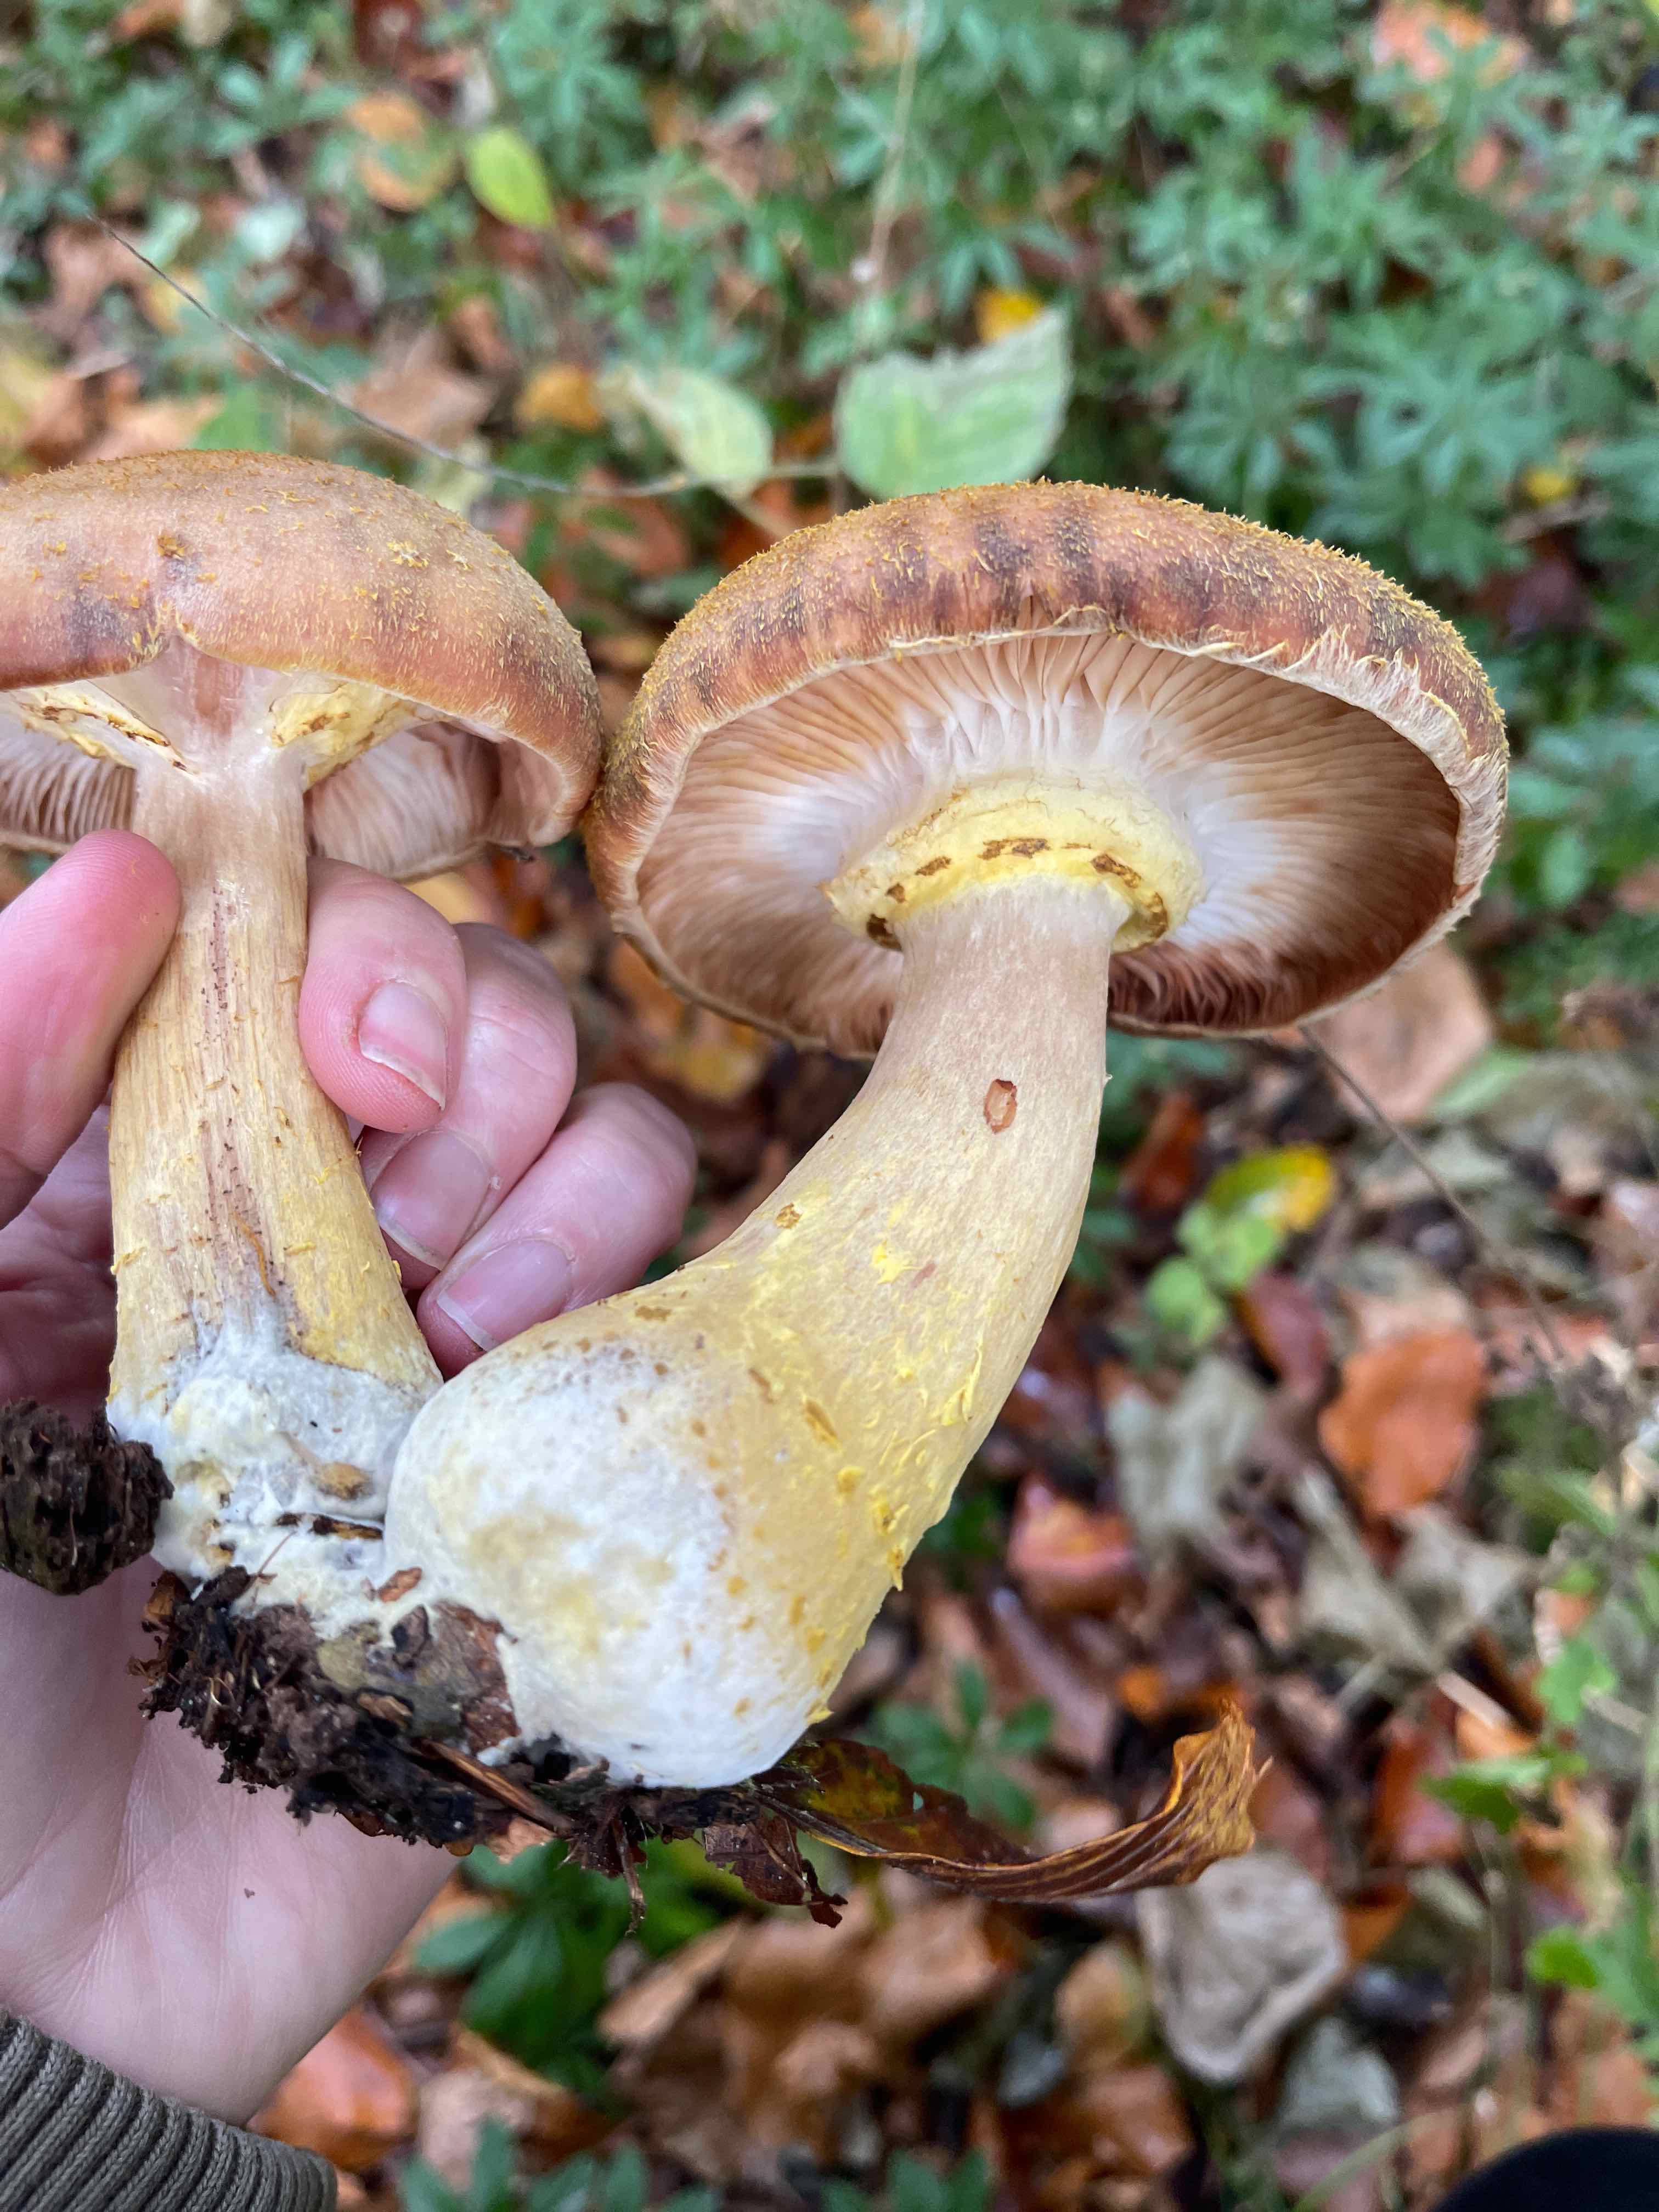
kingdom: Fungi
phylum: Basidiomycota
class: Agaricomycetes
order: Agaricales
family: Physalacriaceae
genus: Armillaria
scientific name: Armillaria lutea
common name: køllestokket honningsvamp
